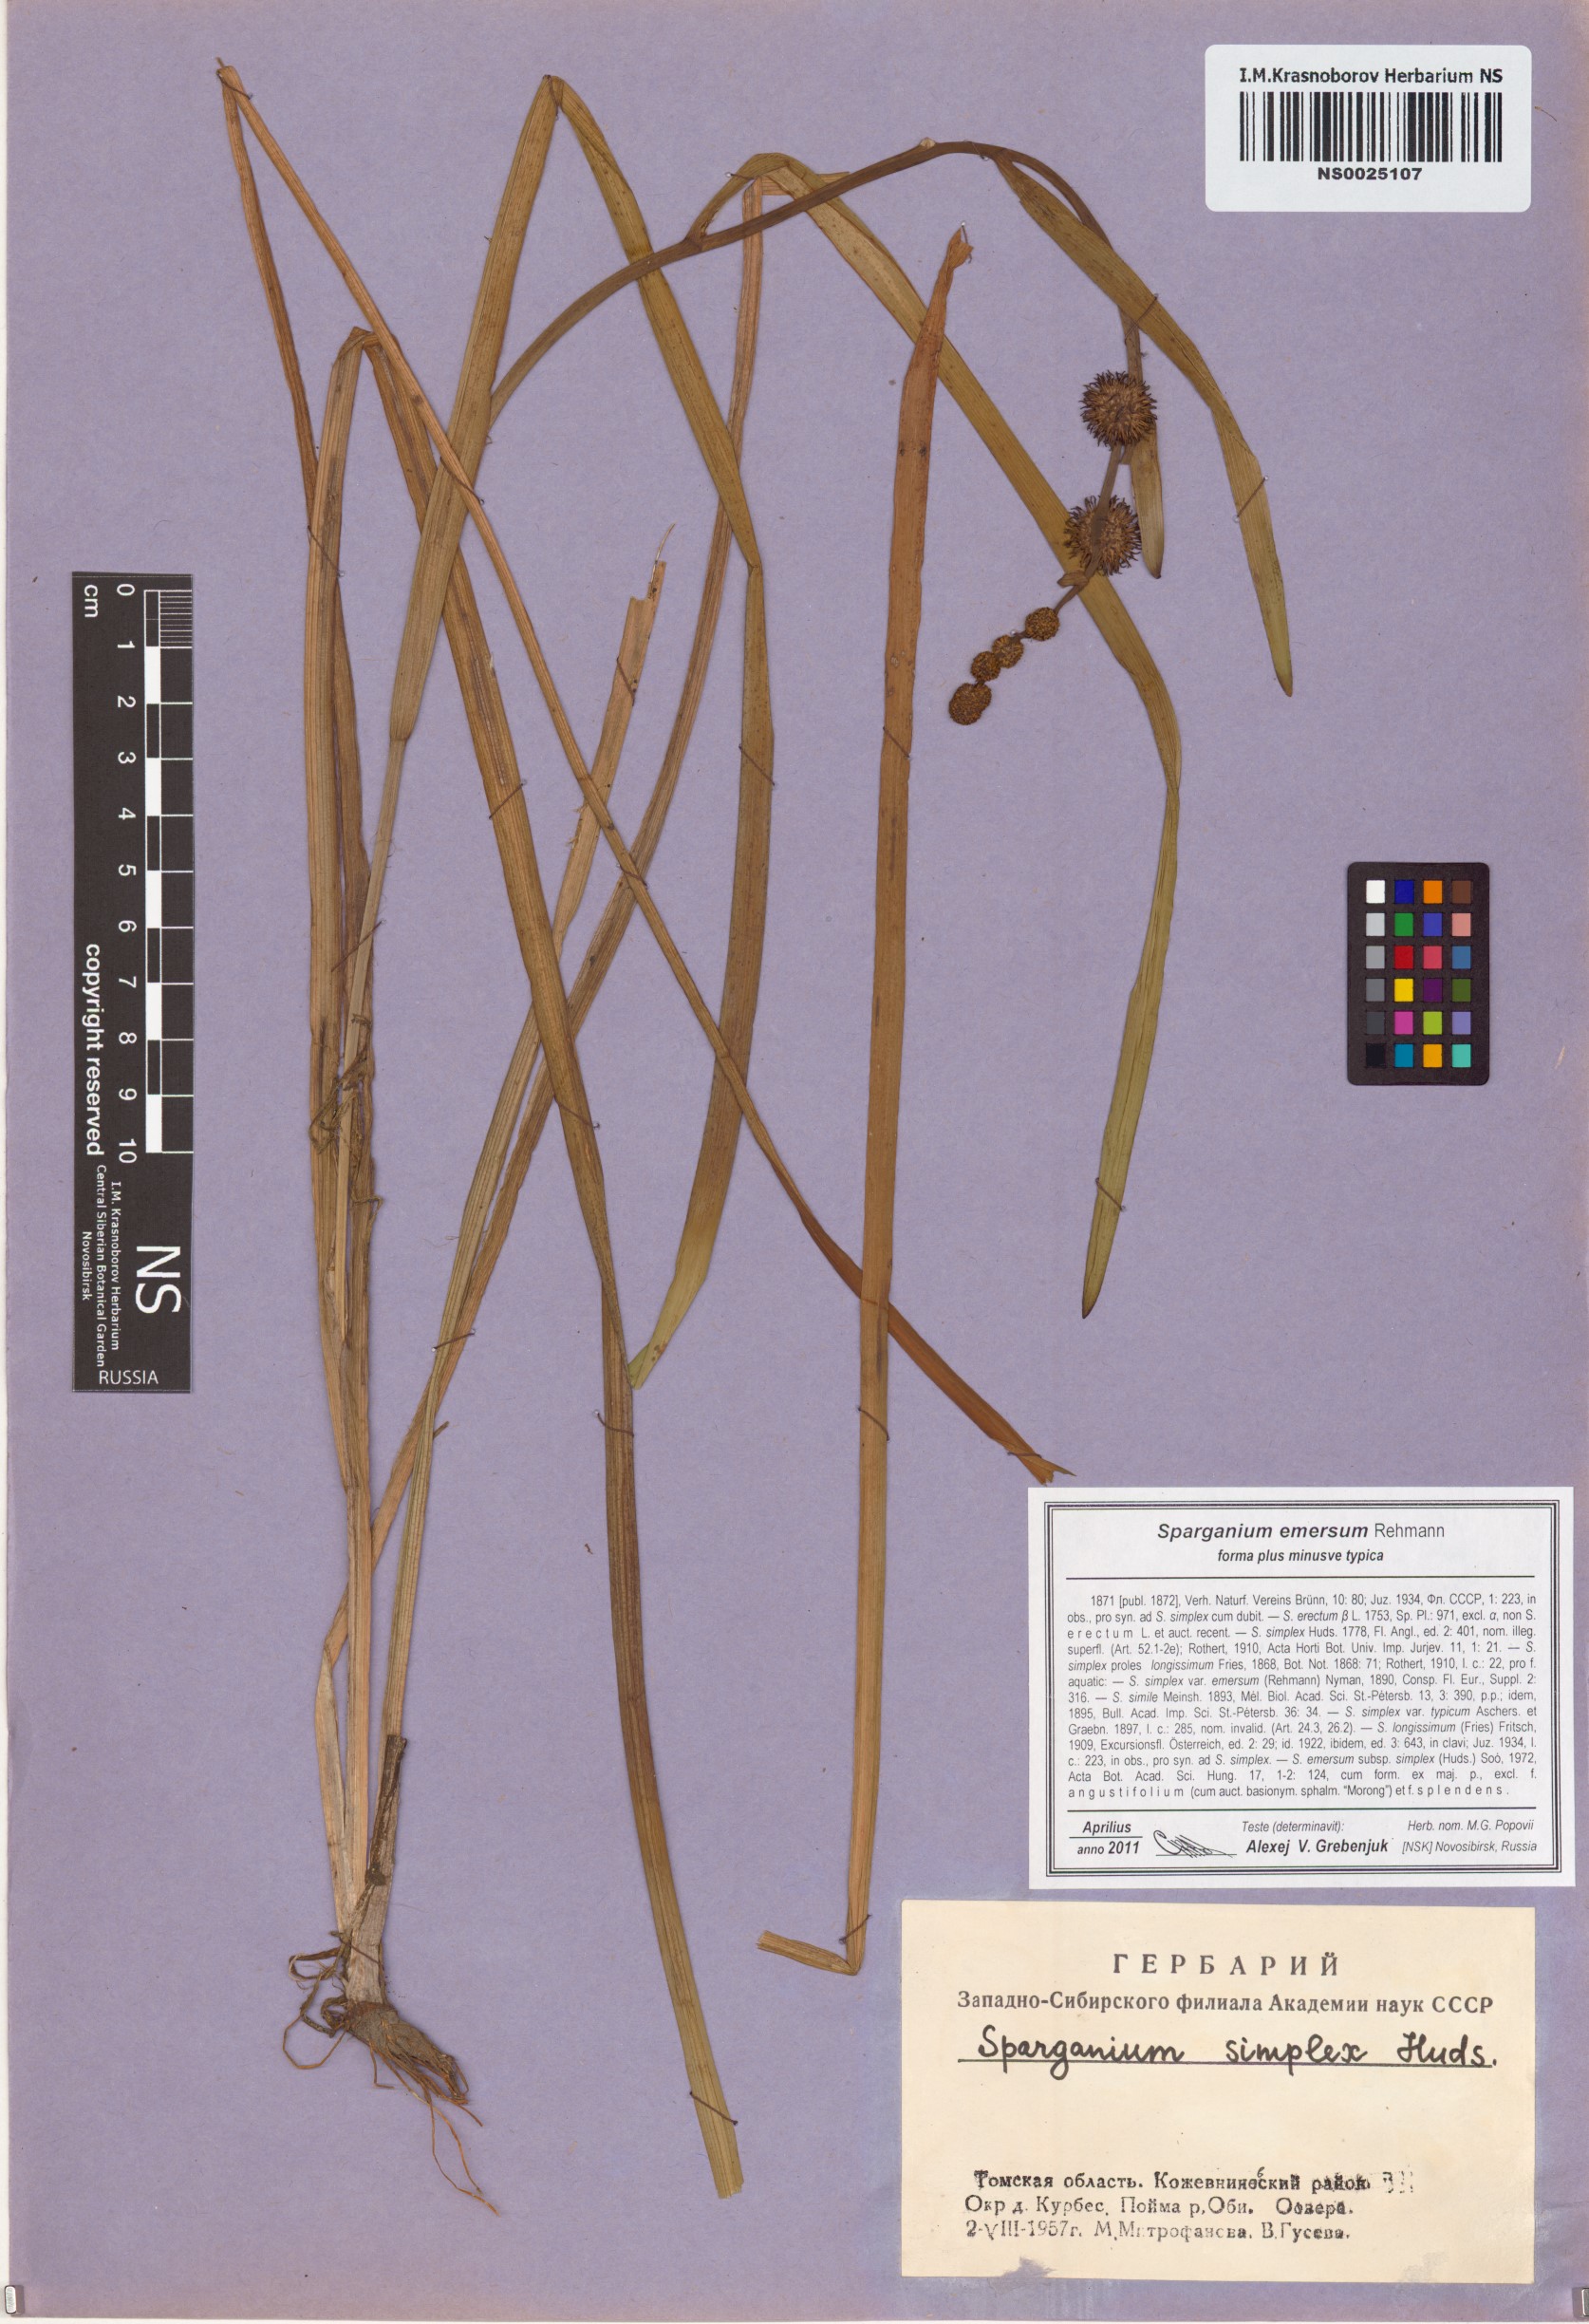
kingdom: Plantae
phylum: Tracheophyta
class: Liliopsida
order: Poales
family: Typhaceae
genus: Sparganium
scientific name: Sparganium emersum
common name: Unbranched bur-reed
